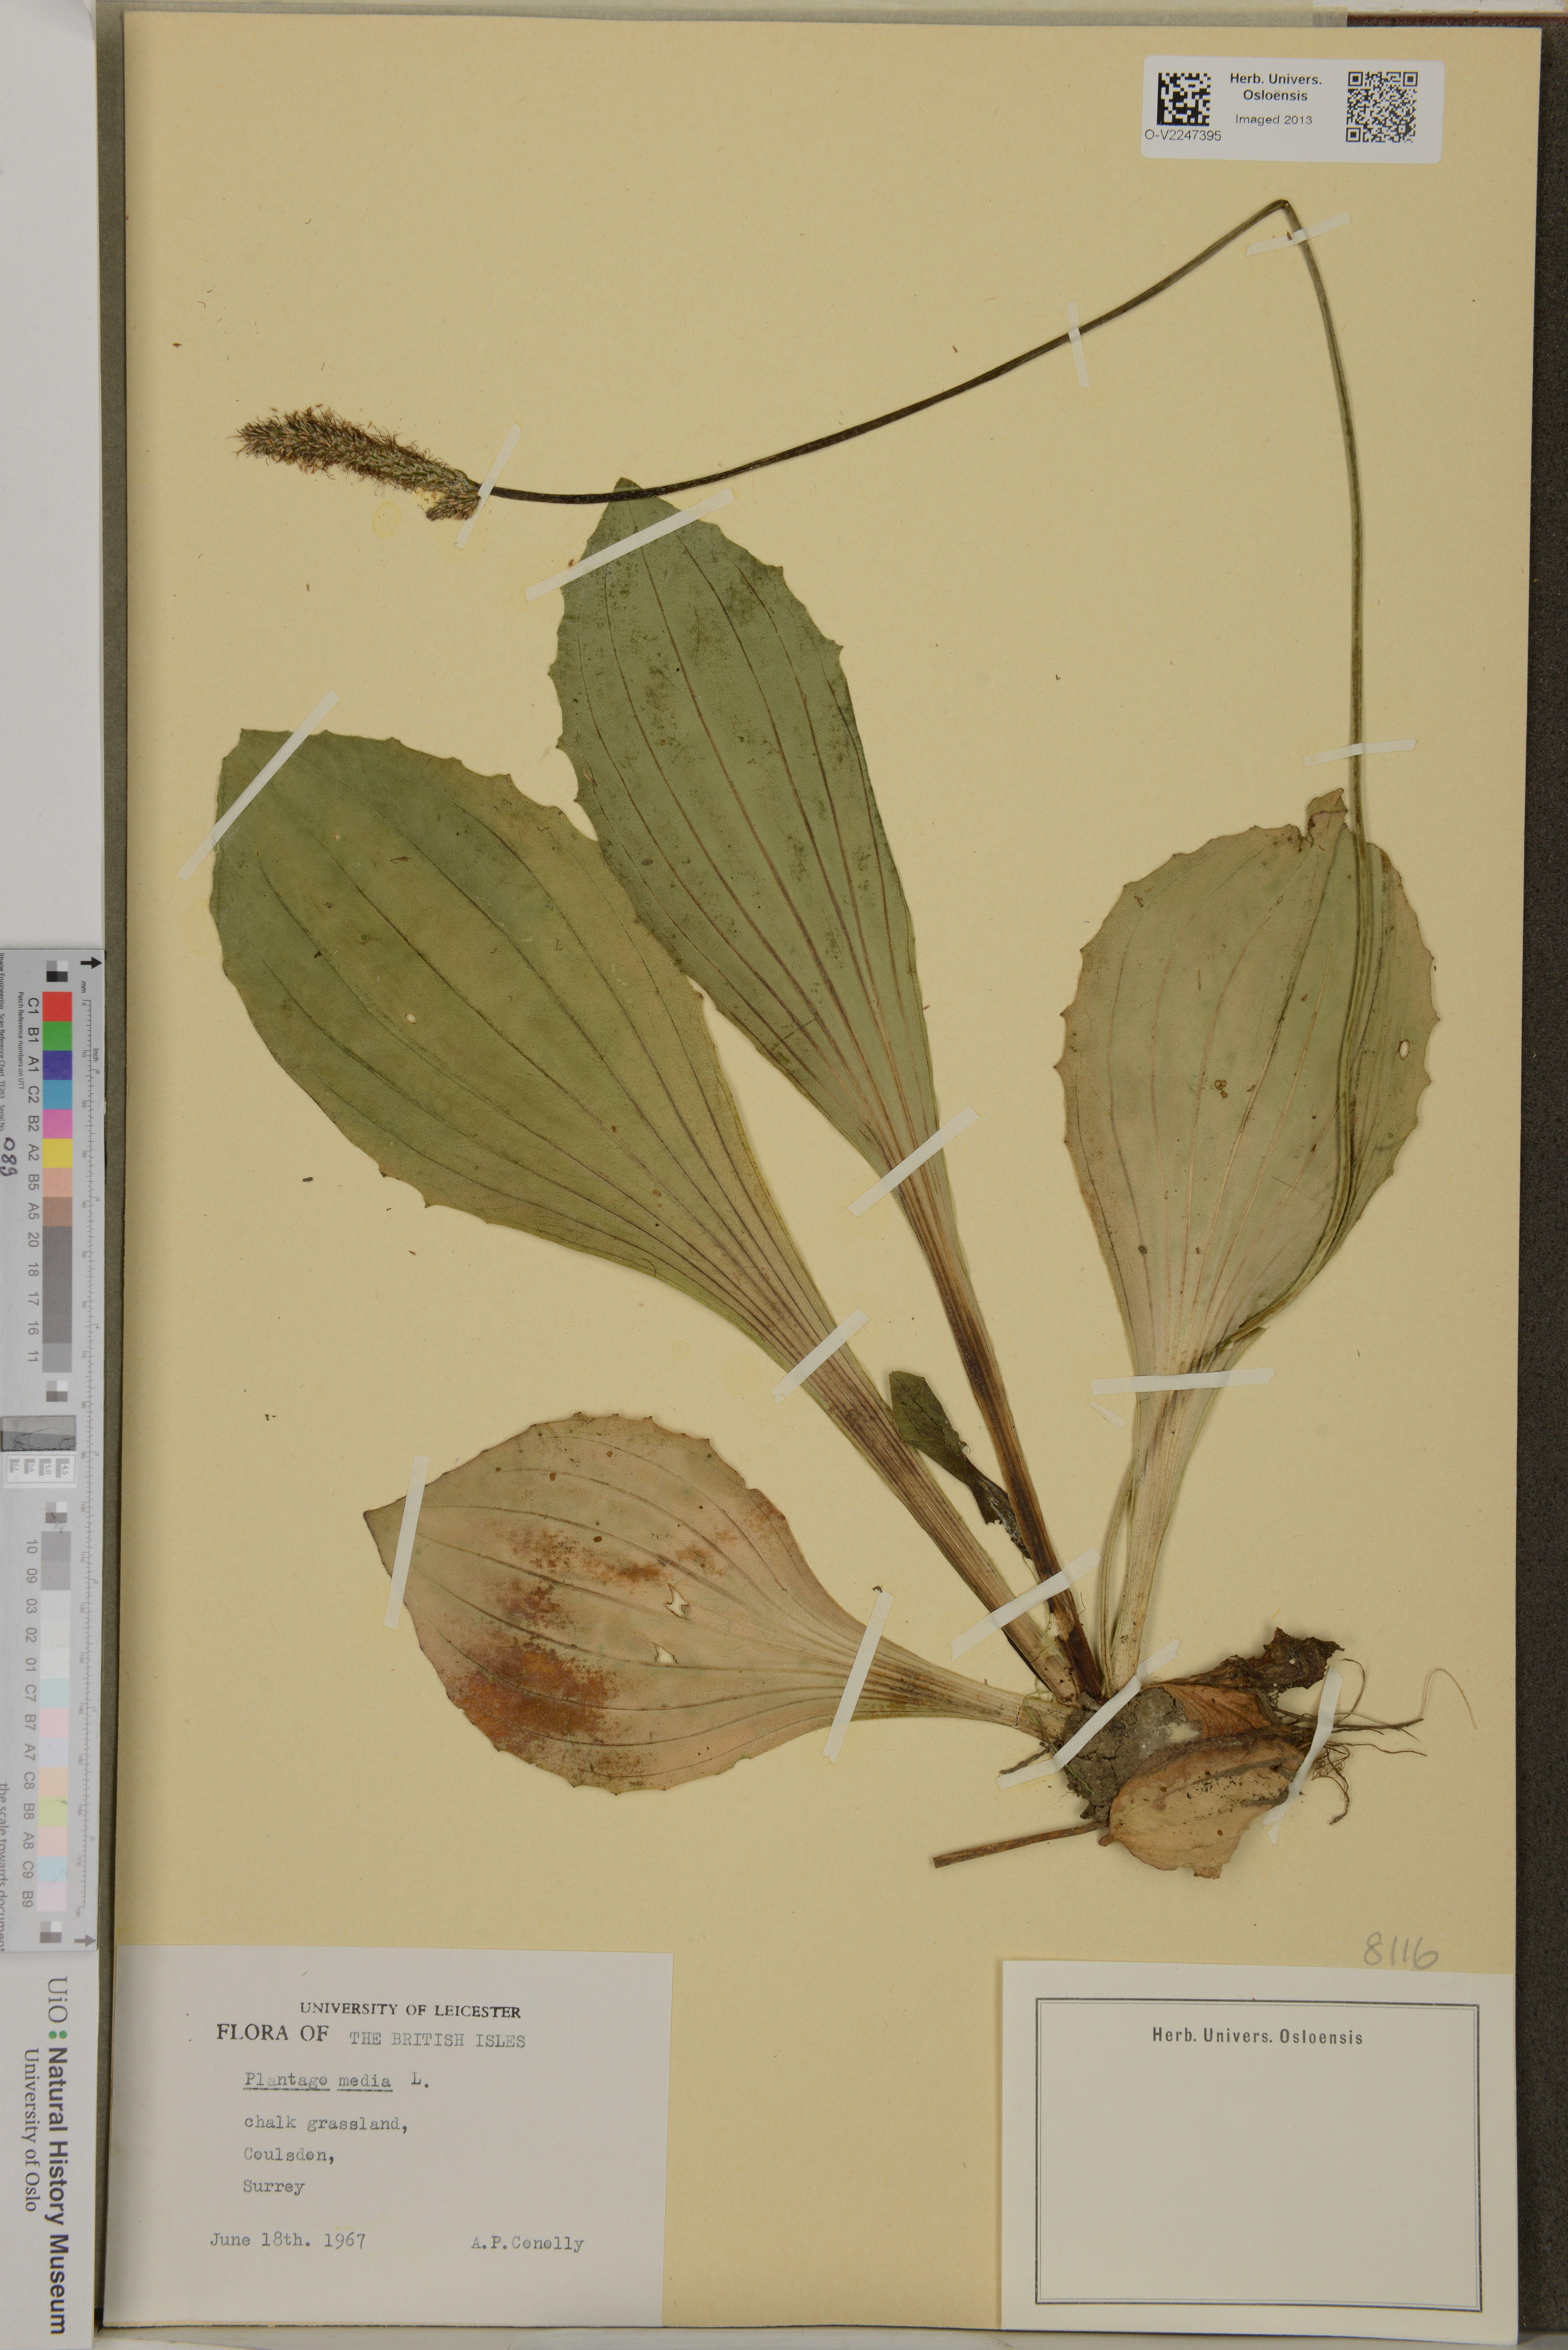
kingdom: Plantae
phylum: Tracheophyta
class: Magnoliopsida
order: Lamiales
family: Plantaginaceae
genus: Plantago
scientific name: Plantago media
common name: Hoary plantain
